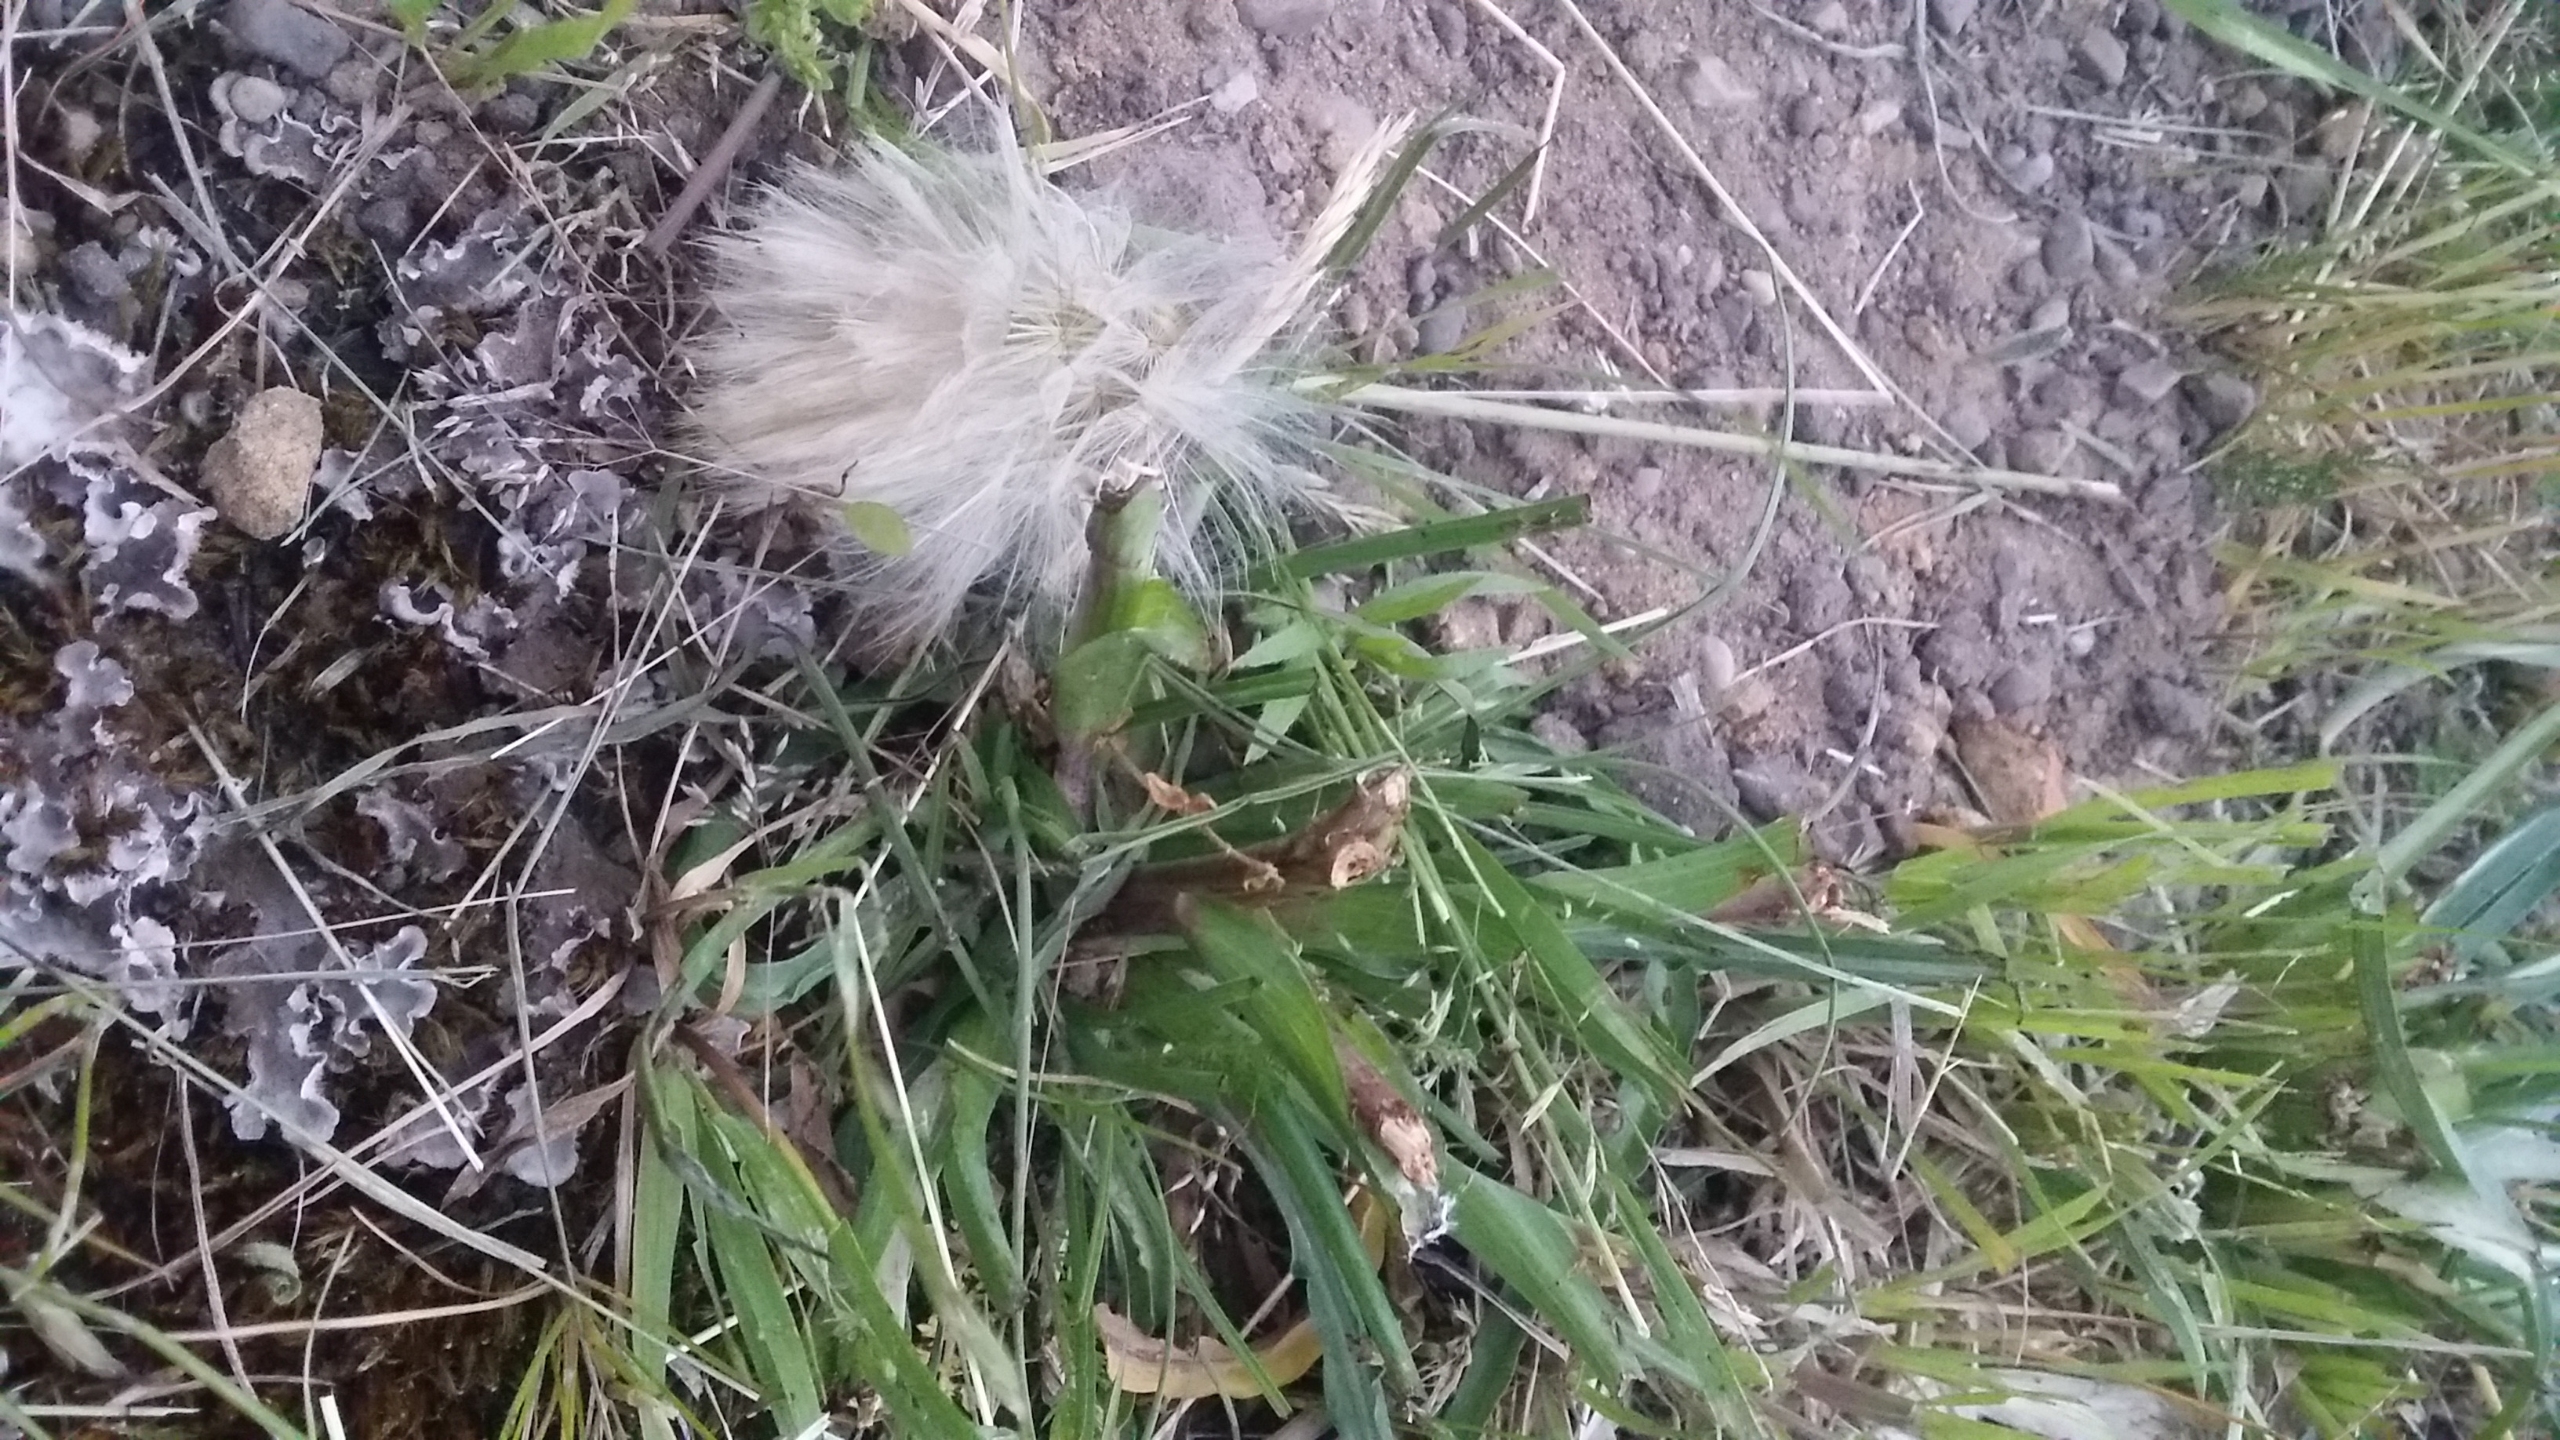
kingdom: Plantae
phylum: Tracheophyta
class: Magnoliopsida
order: Asterales
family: Asteraceae
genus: Tragopogon
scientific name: Tragopogon pratensis
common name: Gedeskæg
